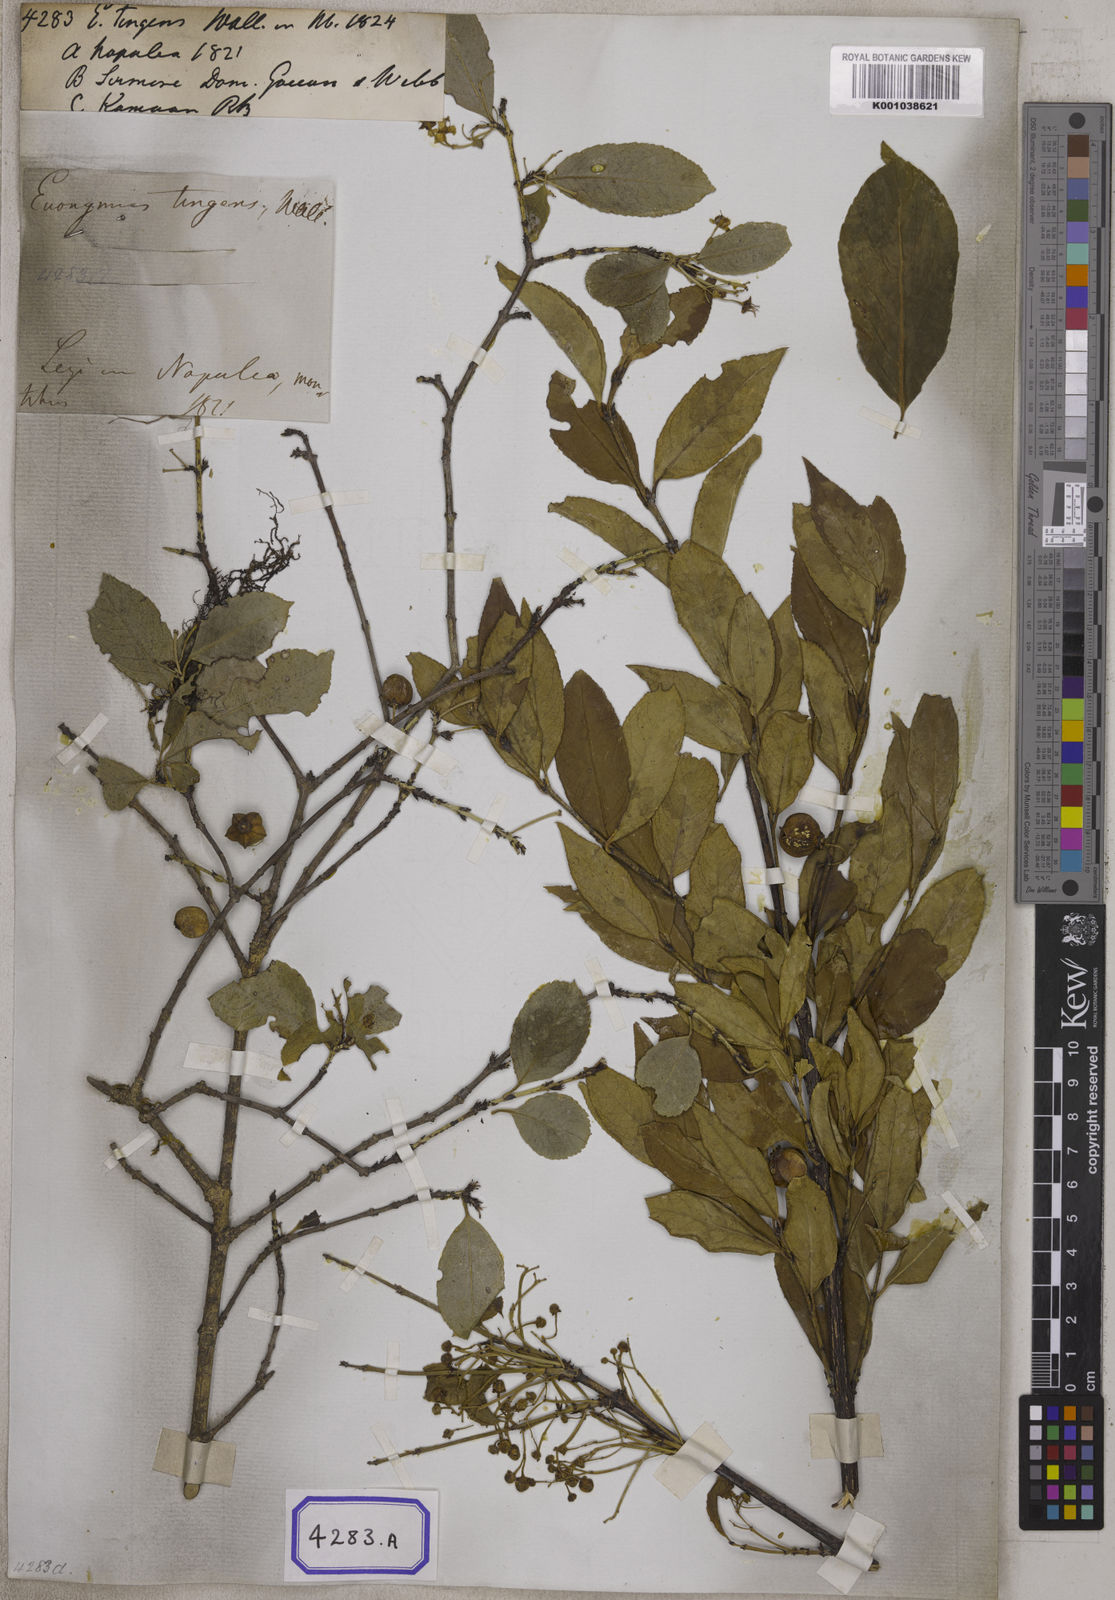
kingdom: Plantae
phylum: Tracheophyta
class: Magnoliopsida
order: Celastrales
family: Celastraceae
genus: Euonymus
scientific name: Euonymus tingens
